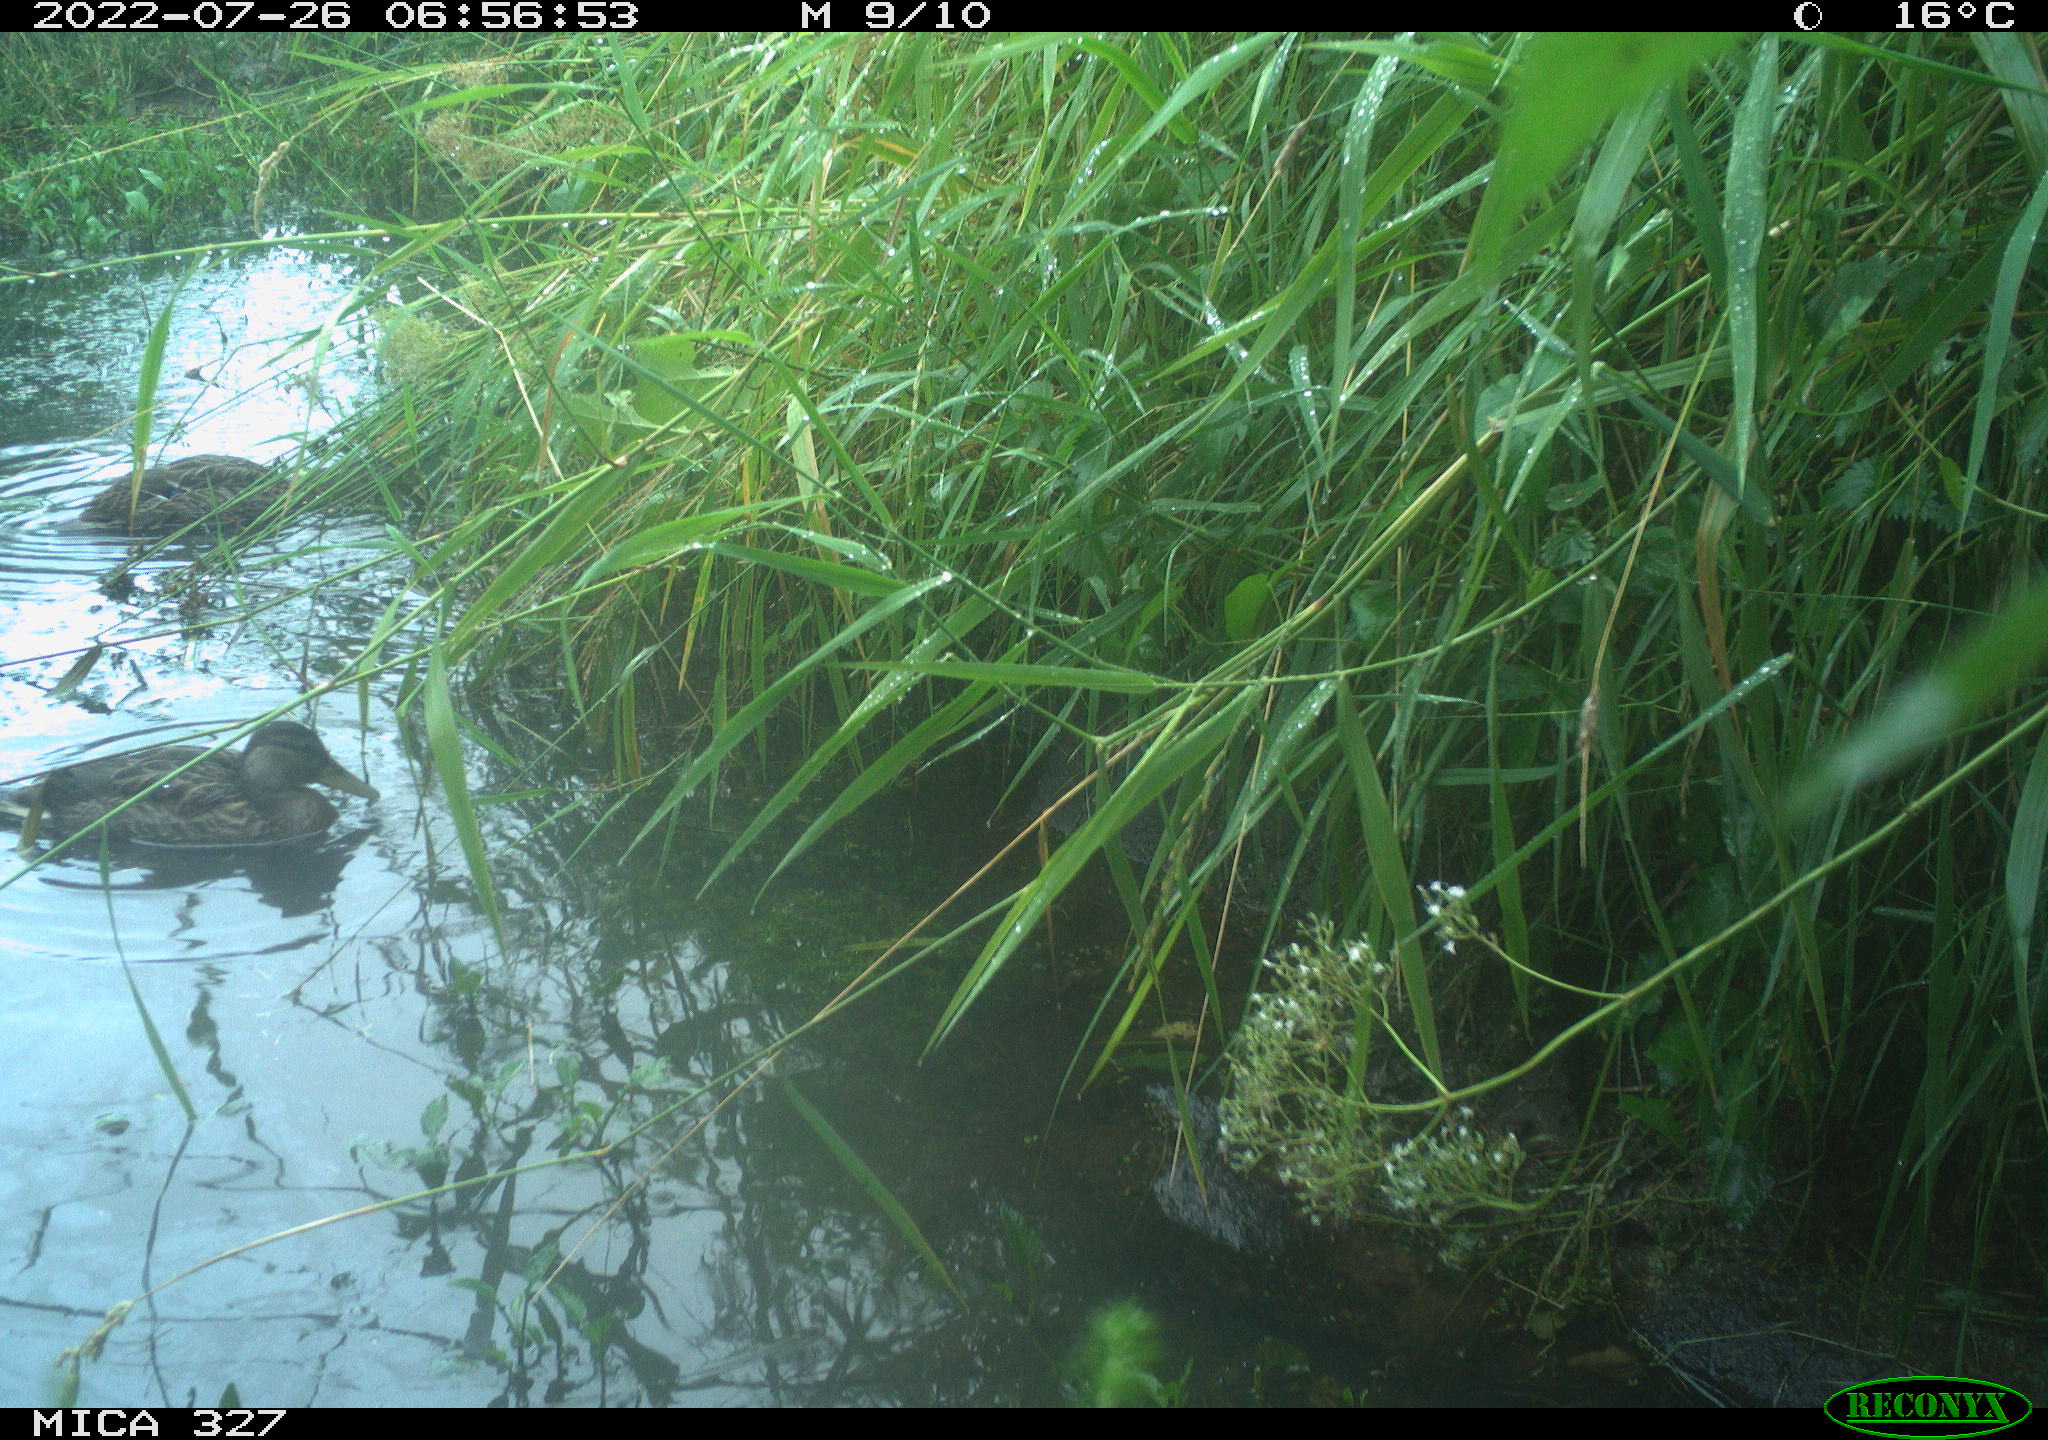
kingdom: Animalia
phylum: Chordata
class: Aves
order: Anseriformes
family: Anatidae
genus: Anas
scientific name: Anas
